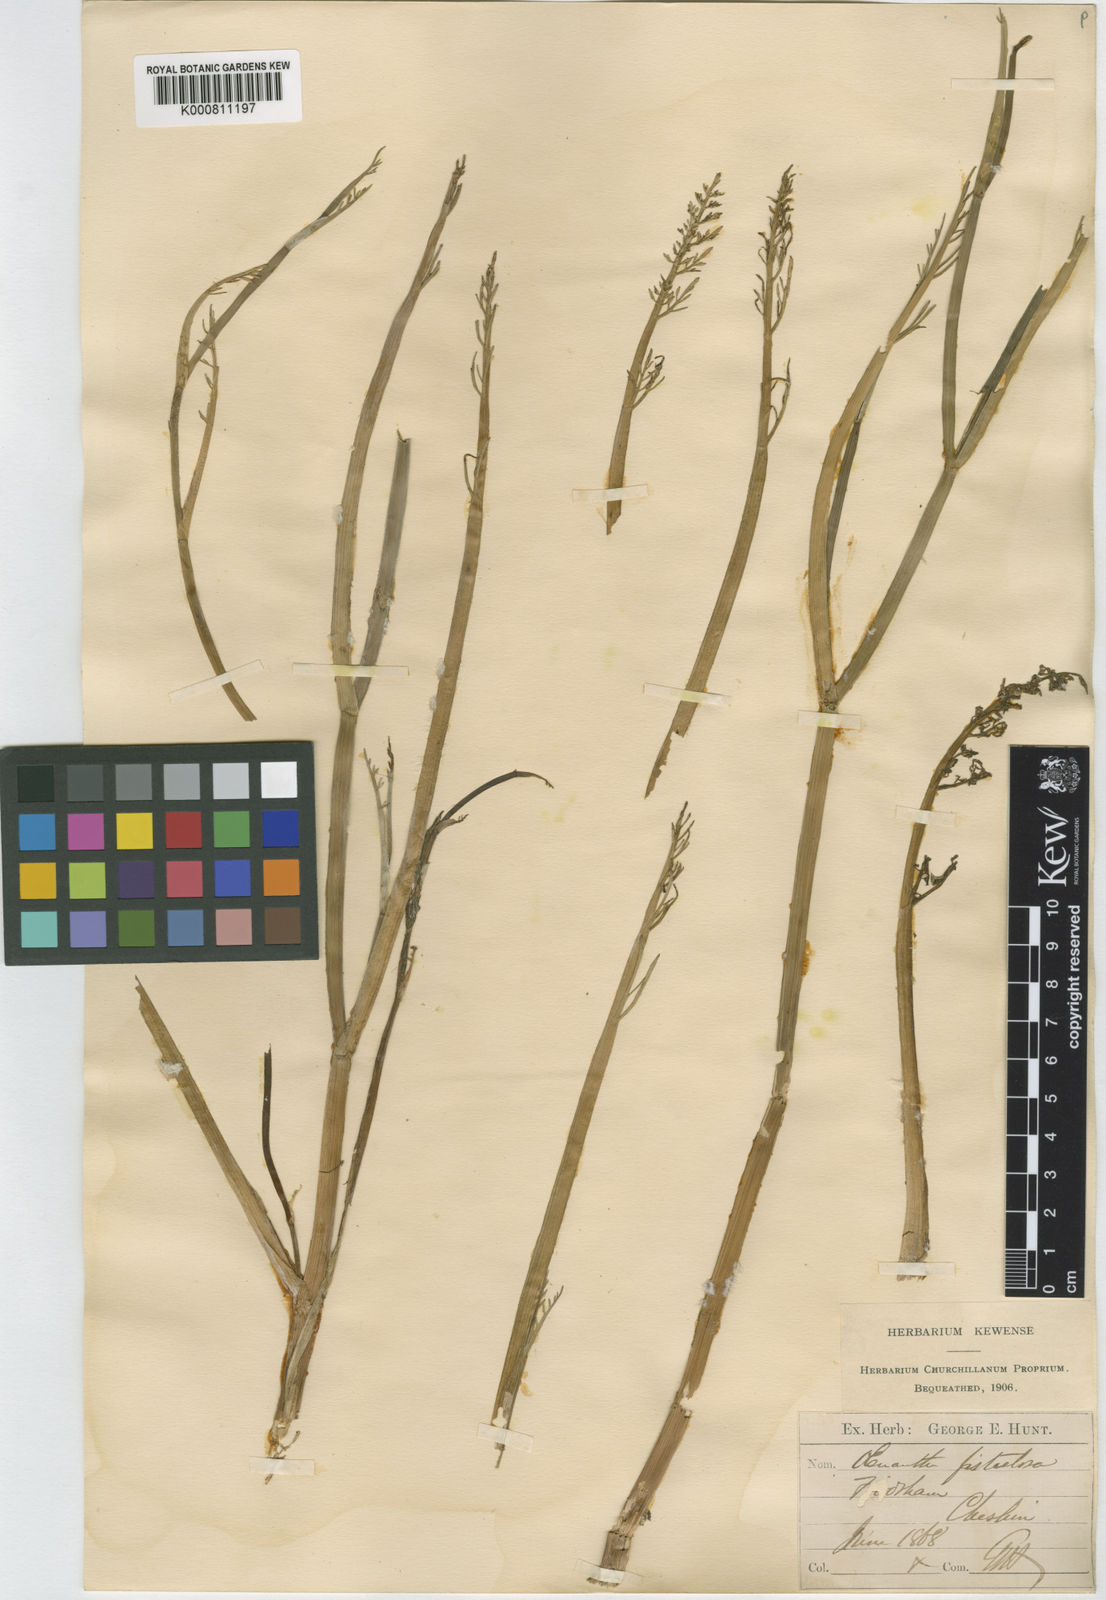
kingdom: Plantae
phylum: Tracheophyta
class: Magnoliopsida
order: Apiales
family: Apiaceae
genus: Oenanthe
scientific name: Oenanthe fistulosa
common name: Tubular water-dropwort
